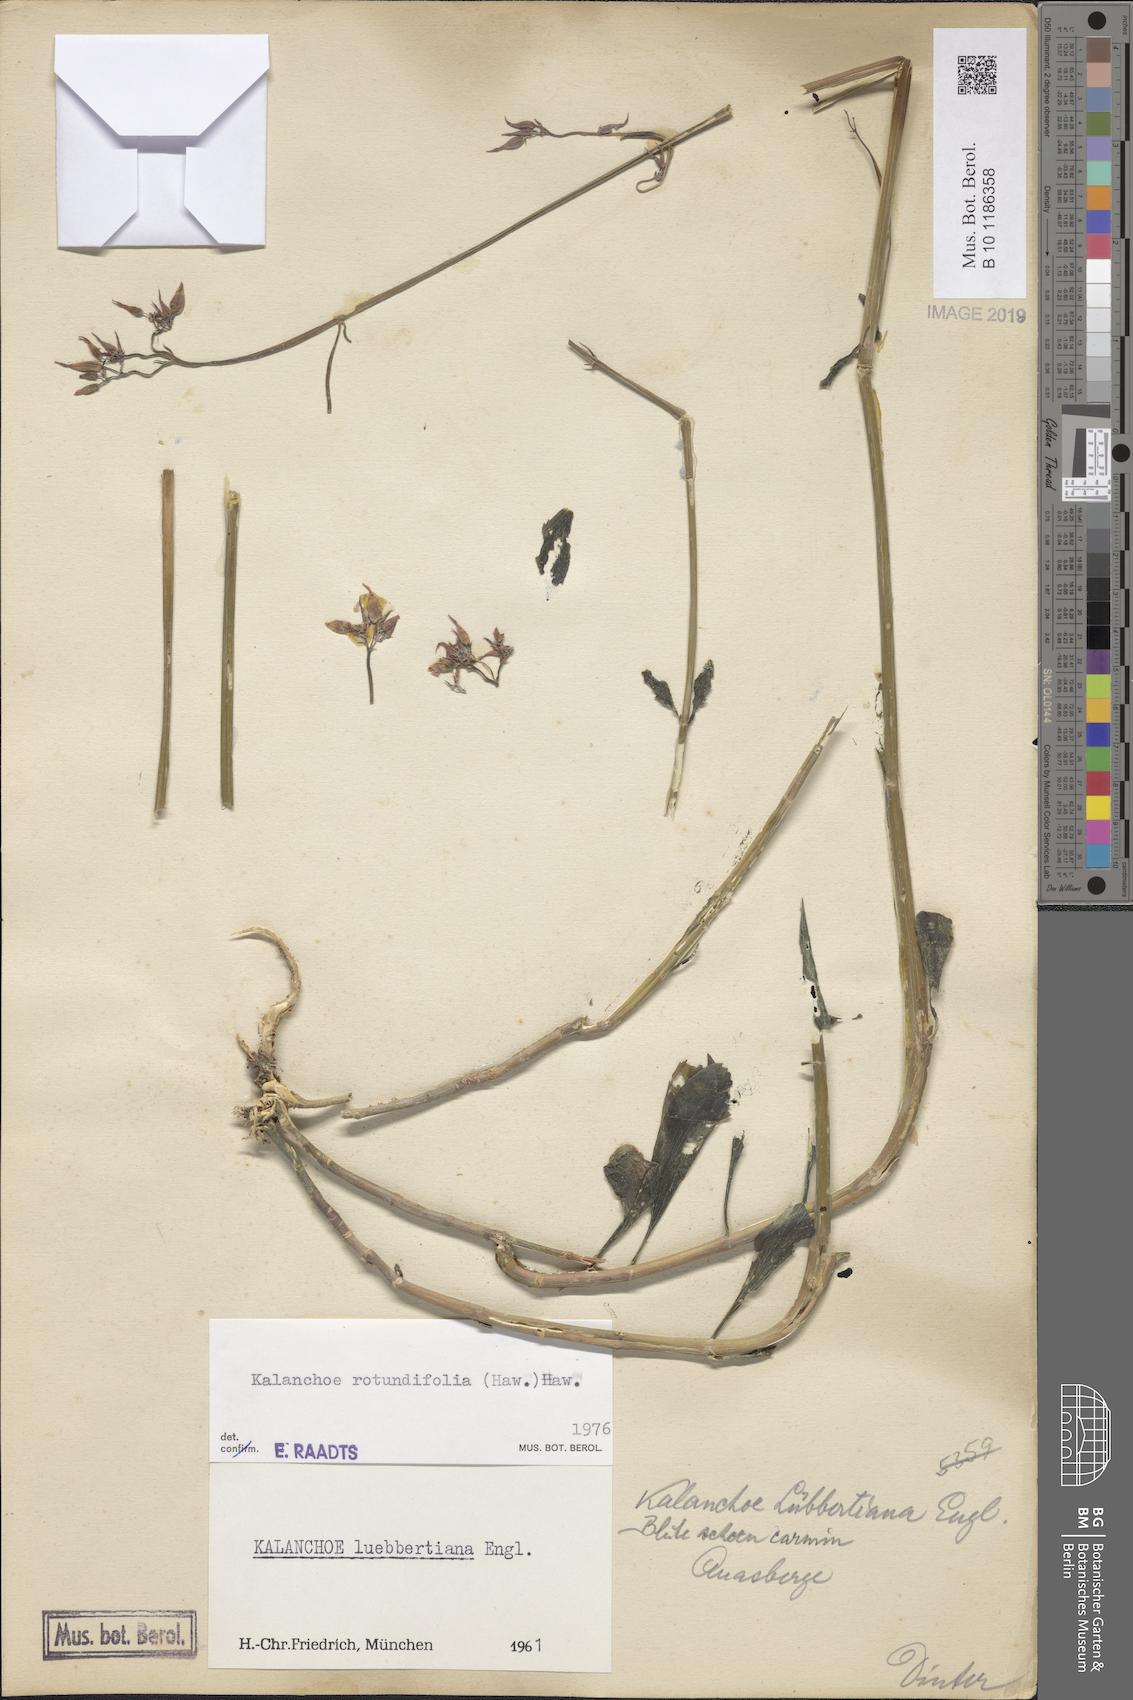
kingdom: Plantae
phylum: Tracheophyta
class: Magnoliopsida
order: Saxifragales
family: Crassulaceae
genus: Kalanchoe
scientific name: Kalanchoe rotundifolia
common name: Common kalanchoe
